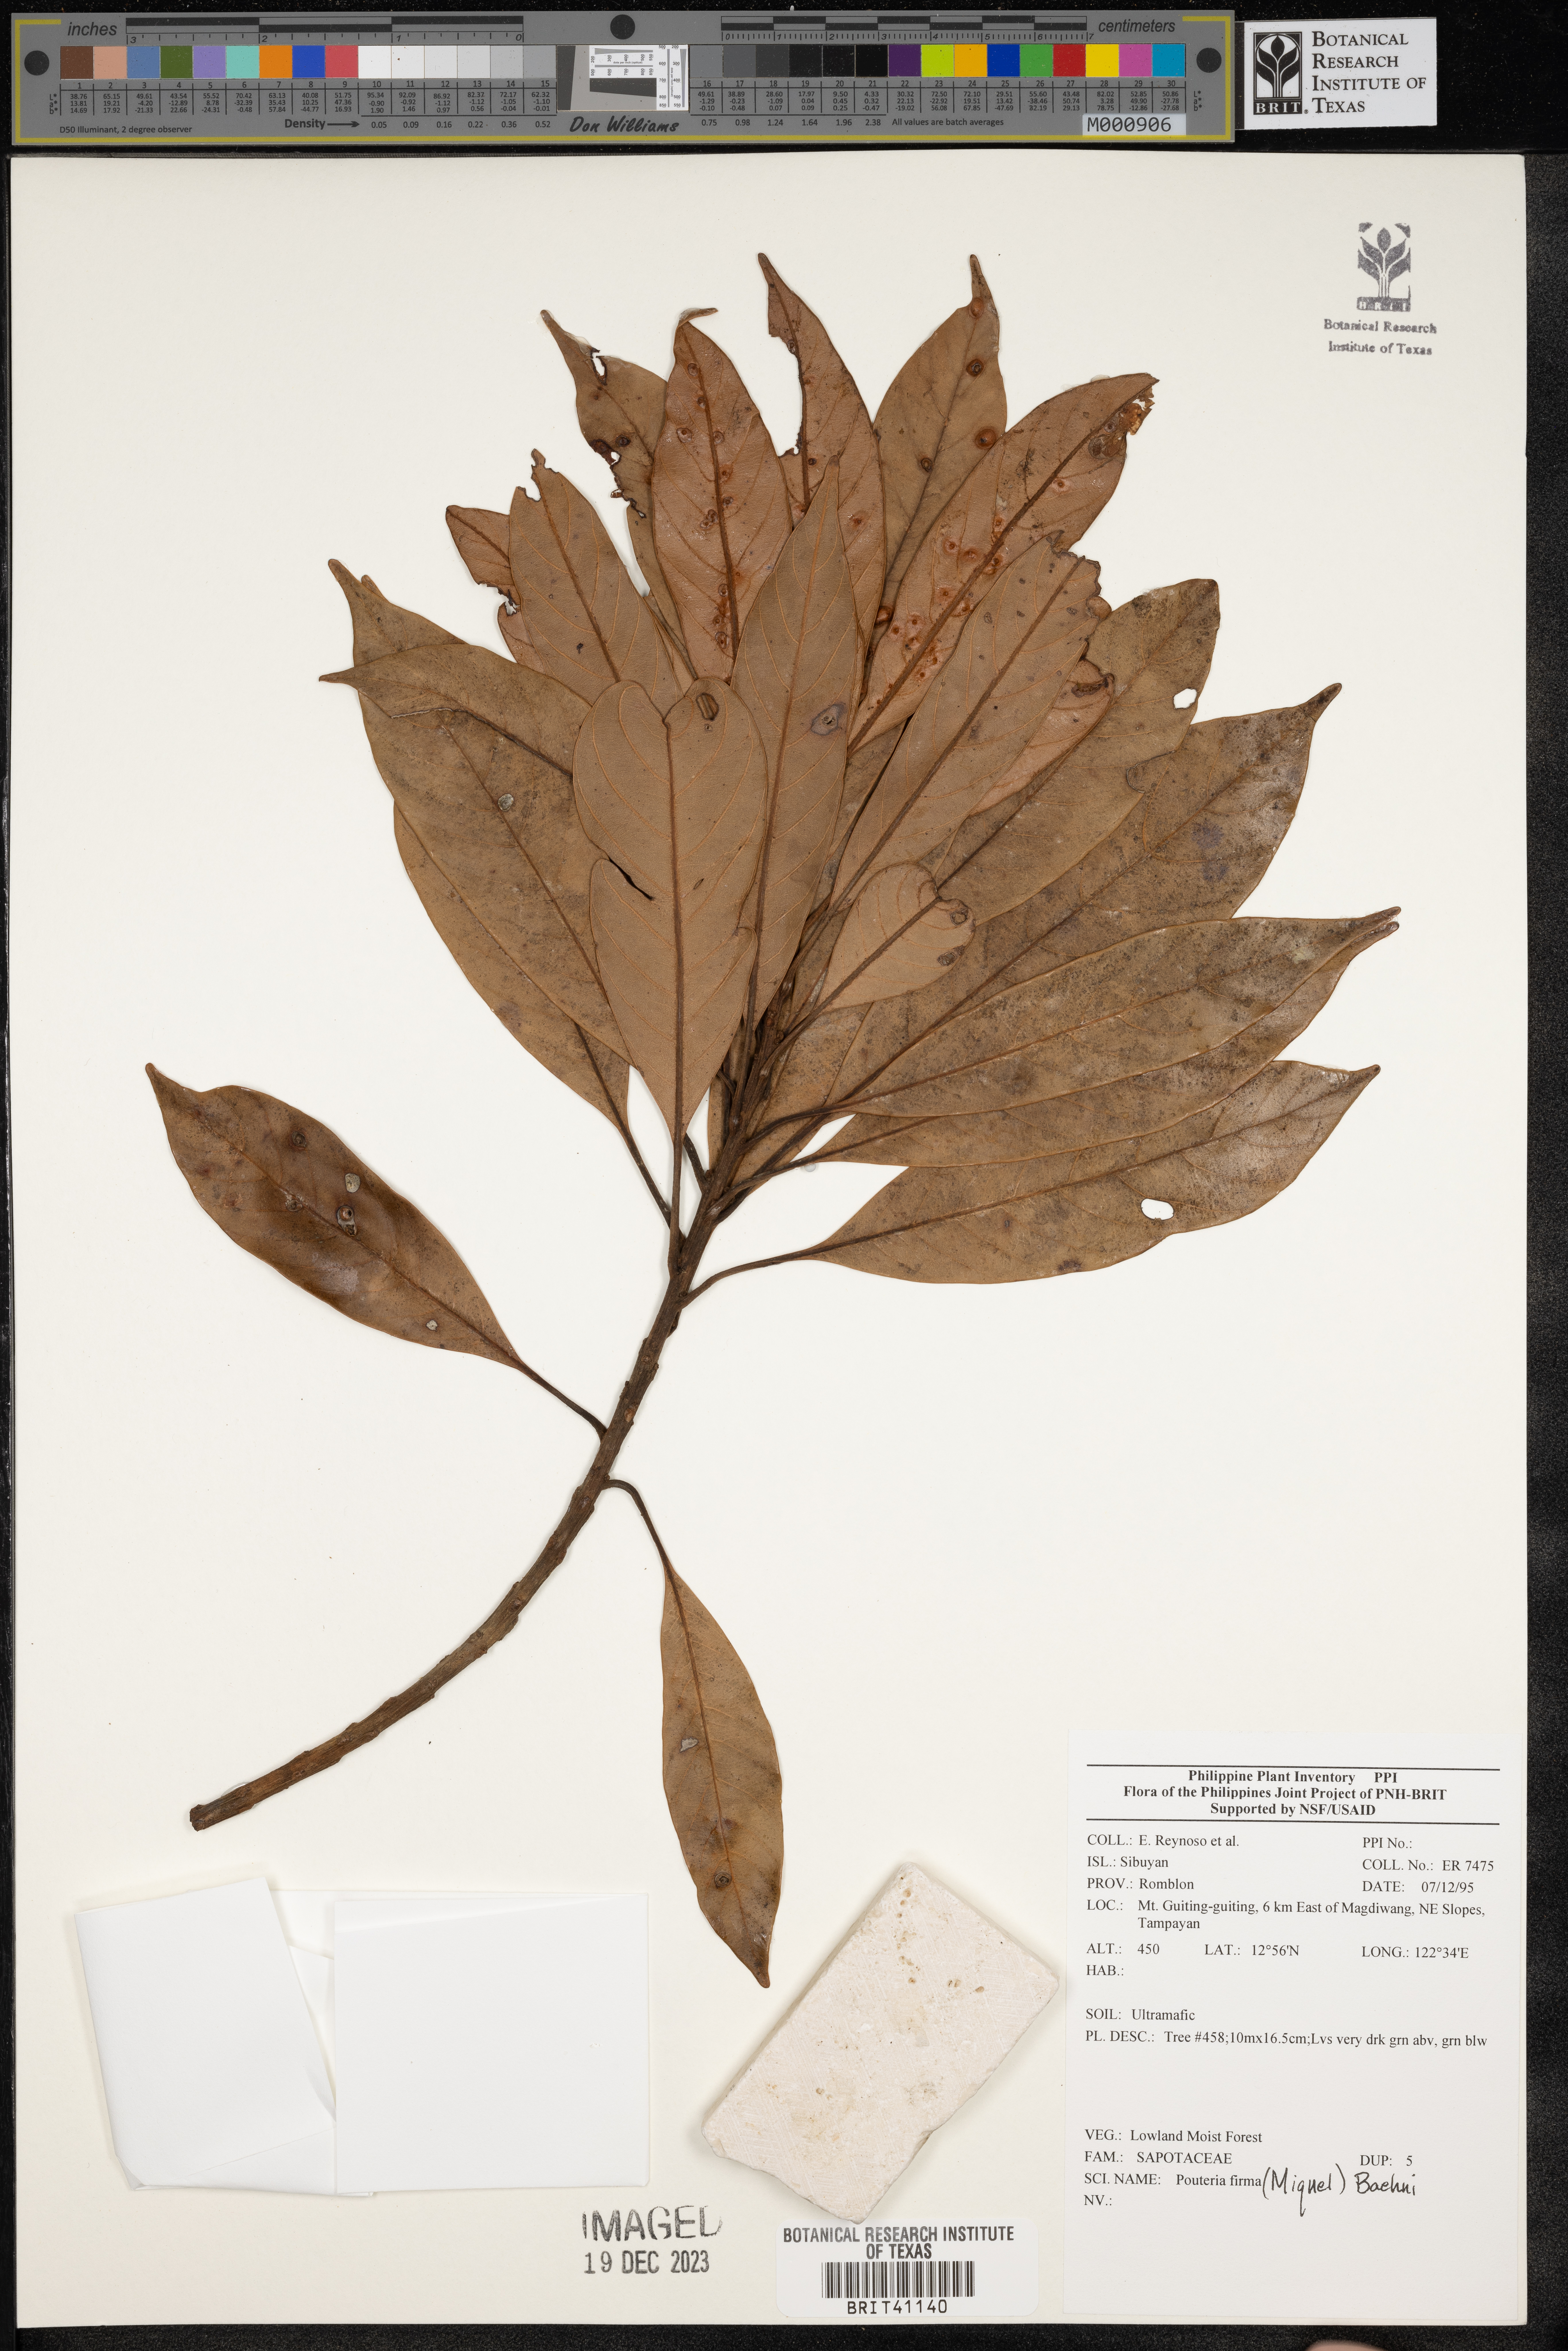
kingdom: Plantae
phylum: Tracheophyta
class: Magnoliopsida
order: Ericales
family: Sapotaceae
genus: Pouteria
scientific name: Pouteria
